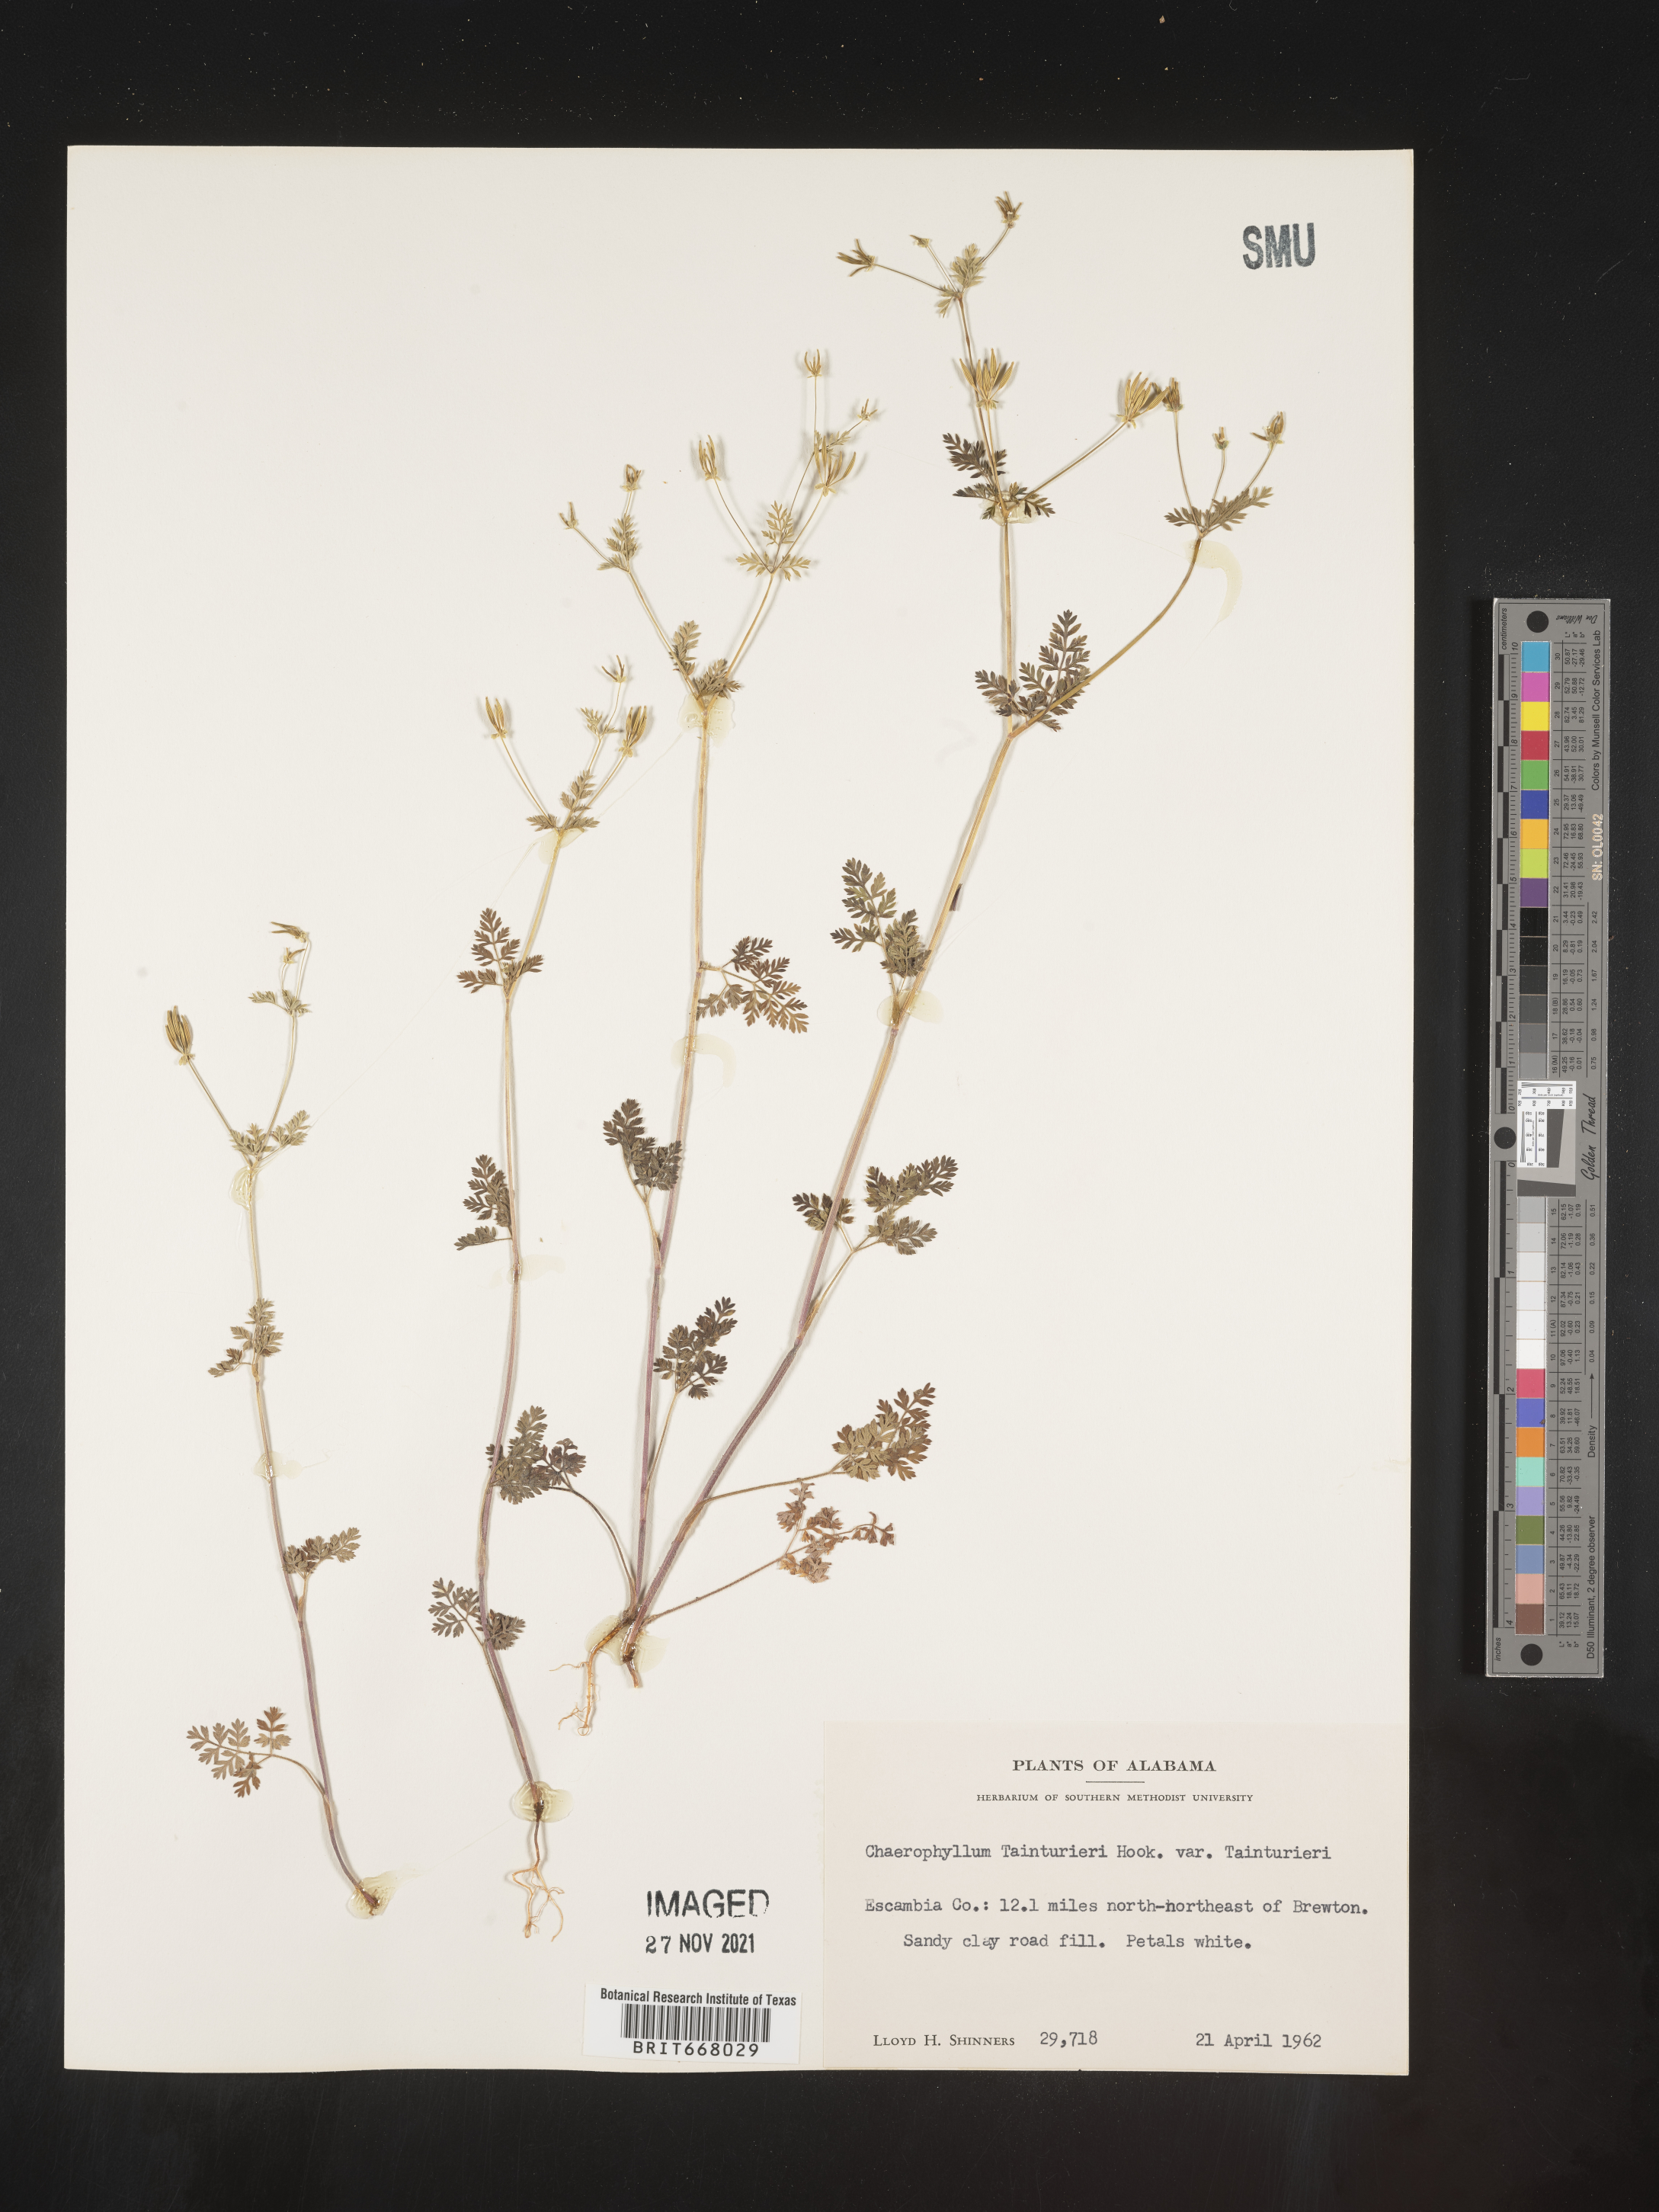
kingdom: Plantae
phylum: Tracheophyta
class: Magnoliopsida
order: Apiales
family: Apiaceae
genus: Chaerophyllum
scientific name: Chaerophyllum tainturieri
